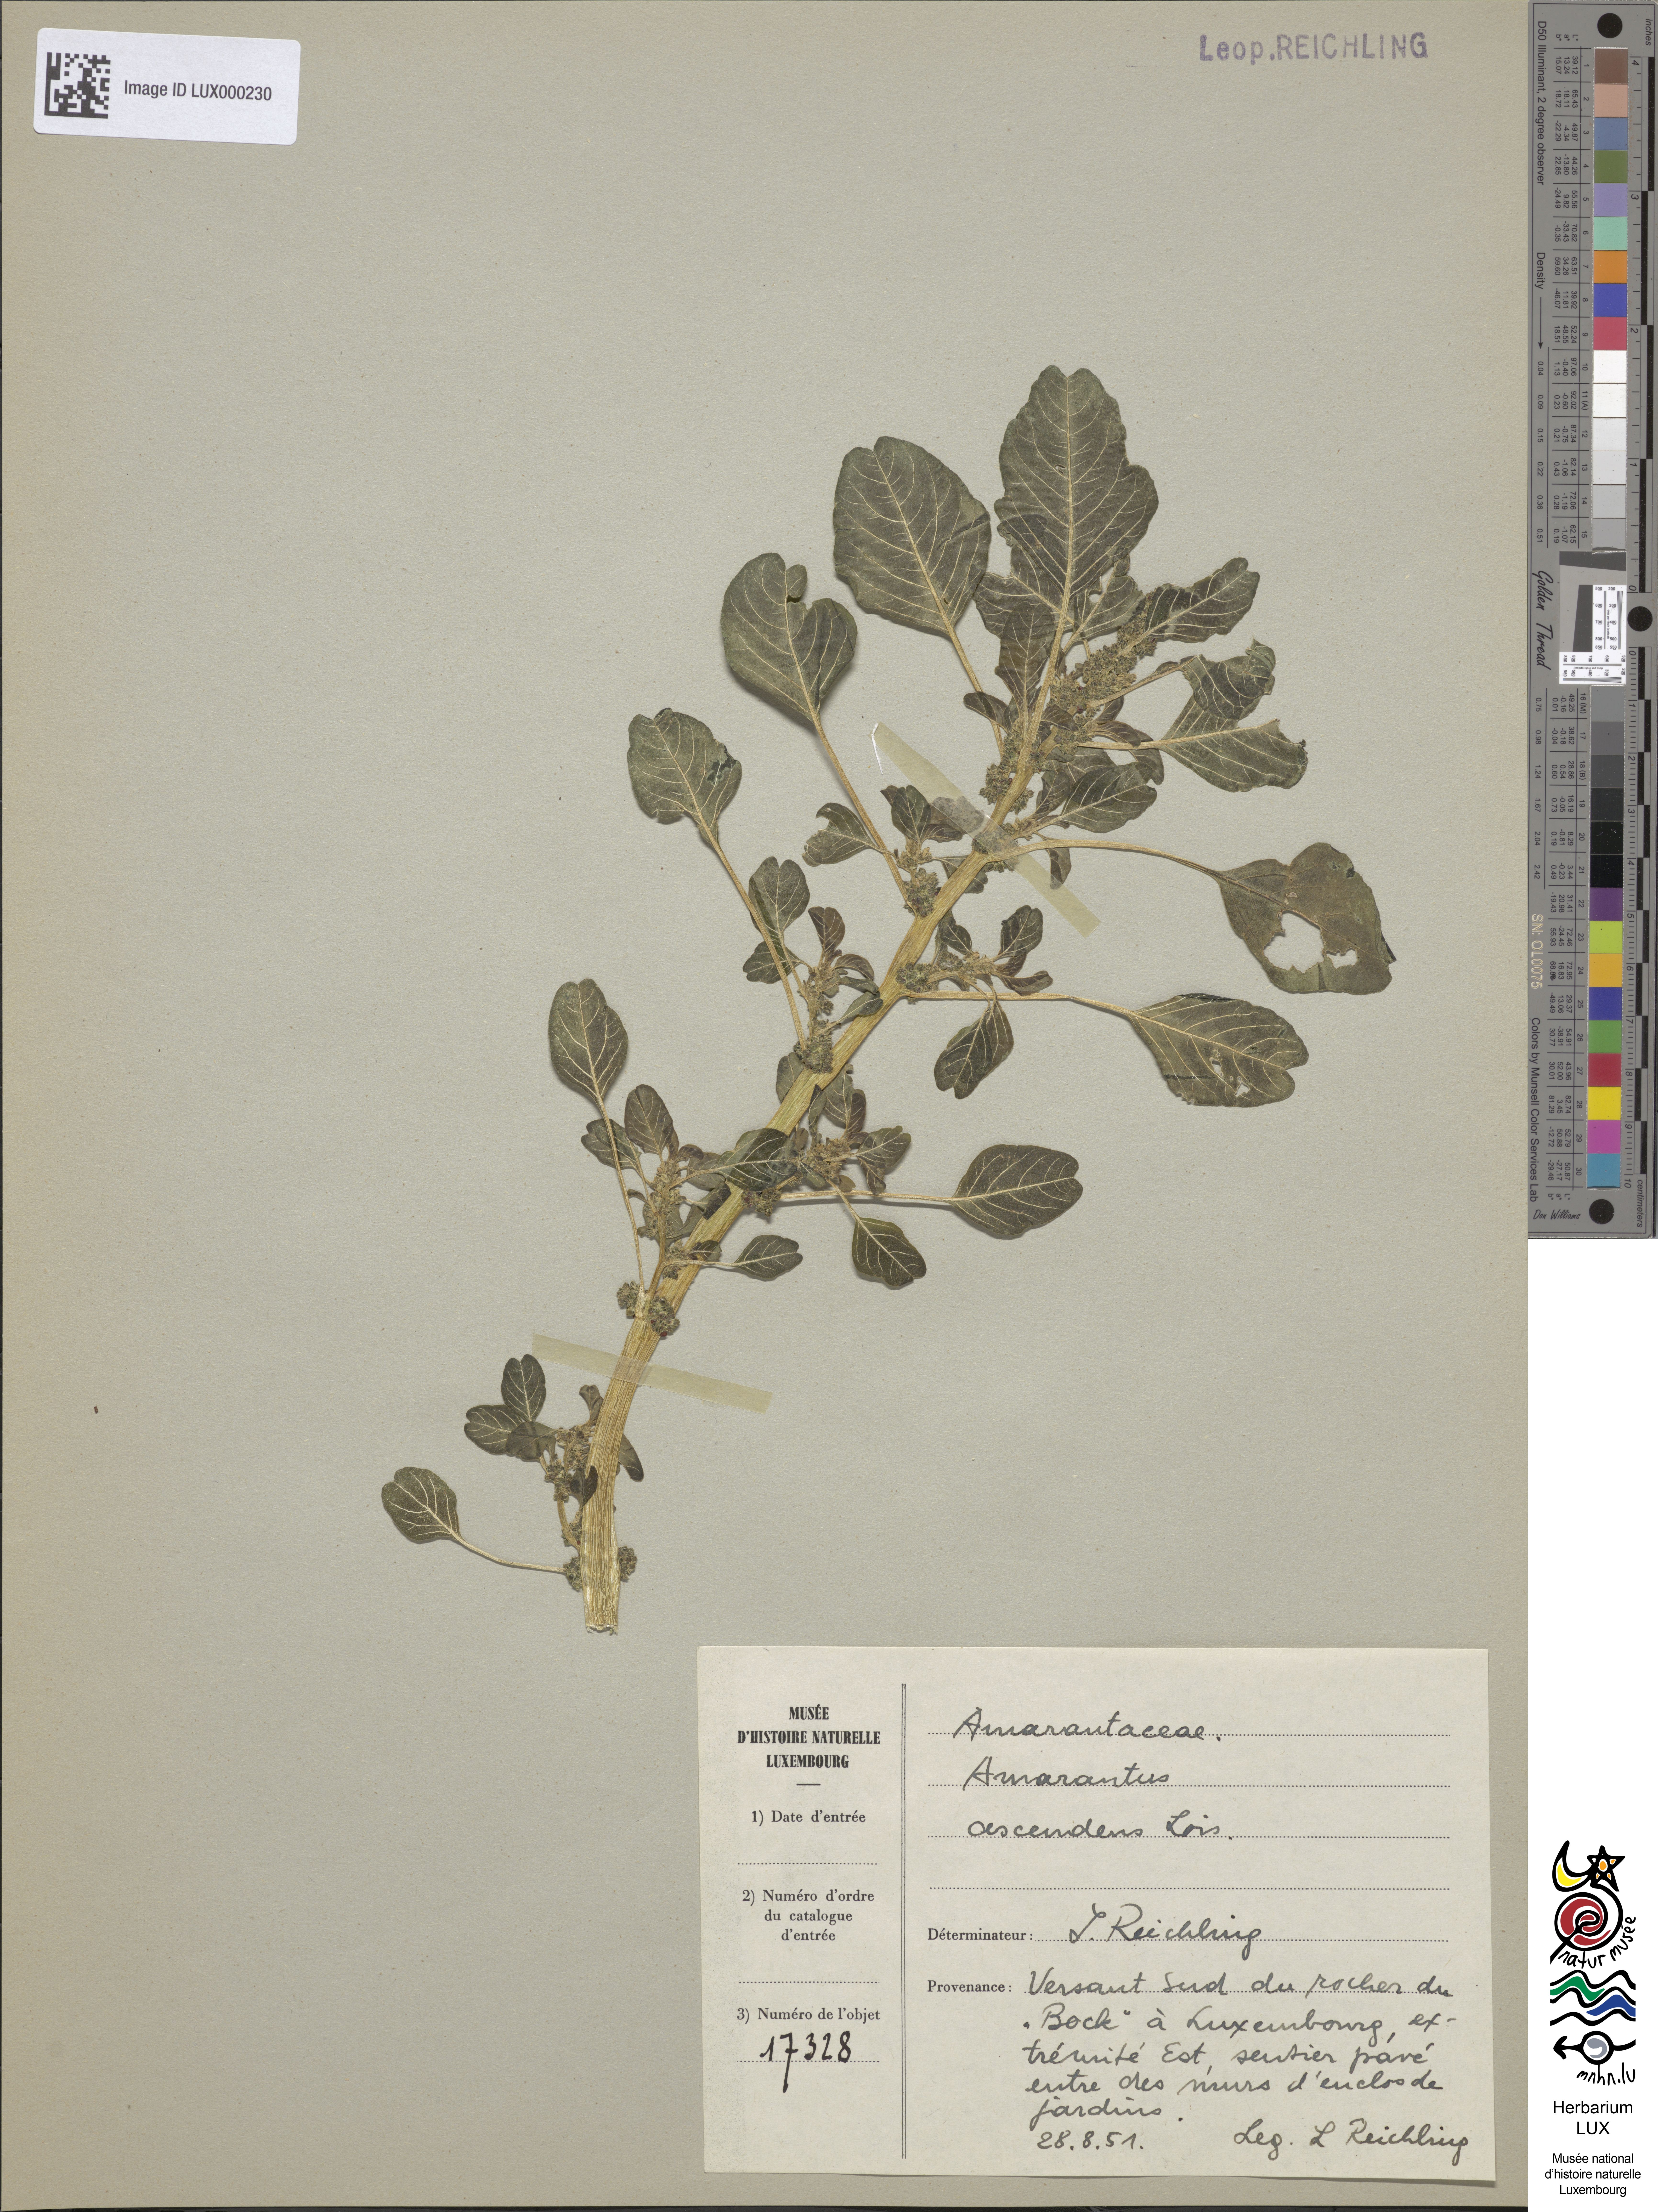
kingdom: Plantae
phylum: Tracheophyta
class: Magnoliopsida
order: Caryophyllales
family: Amaranthaceae
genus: Amaranthus
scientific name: Amaranthus blitum
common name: Purple amaranth
